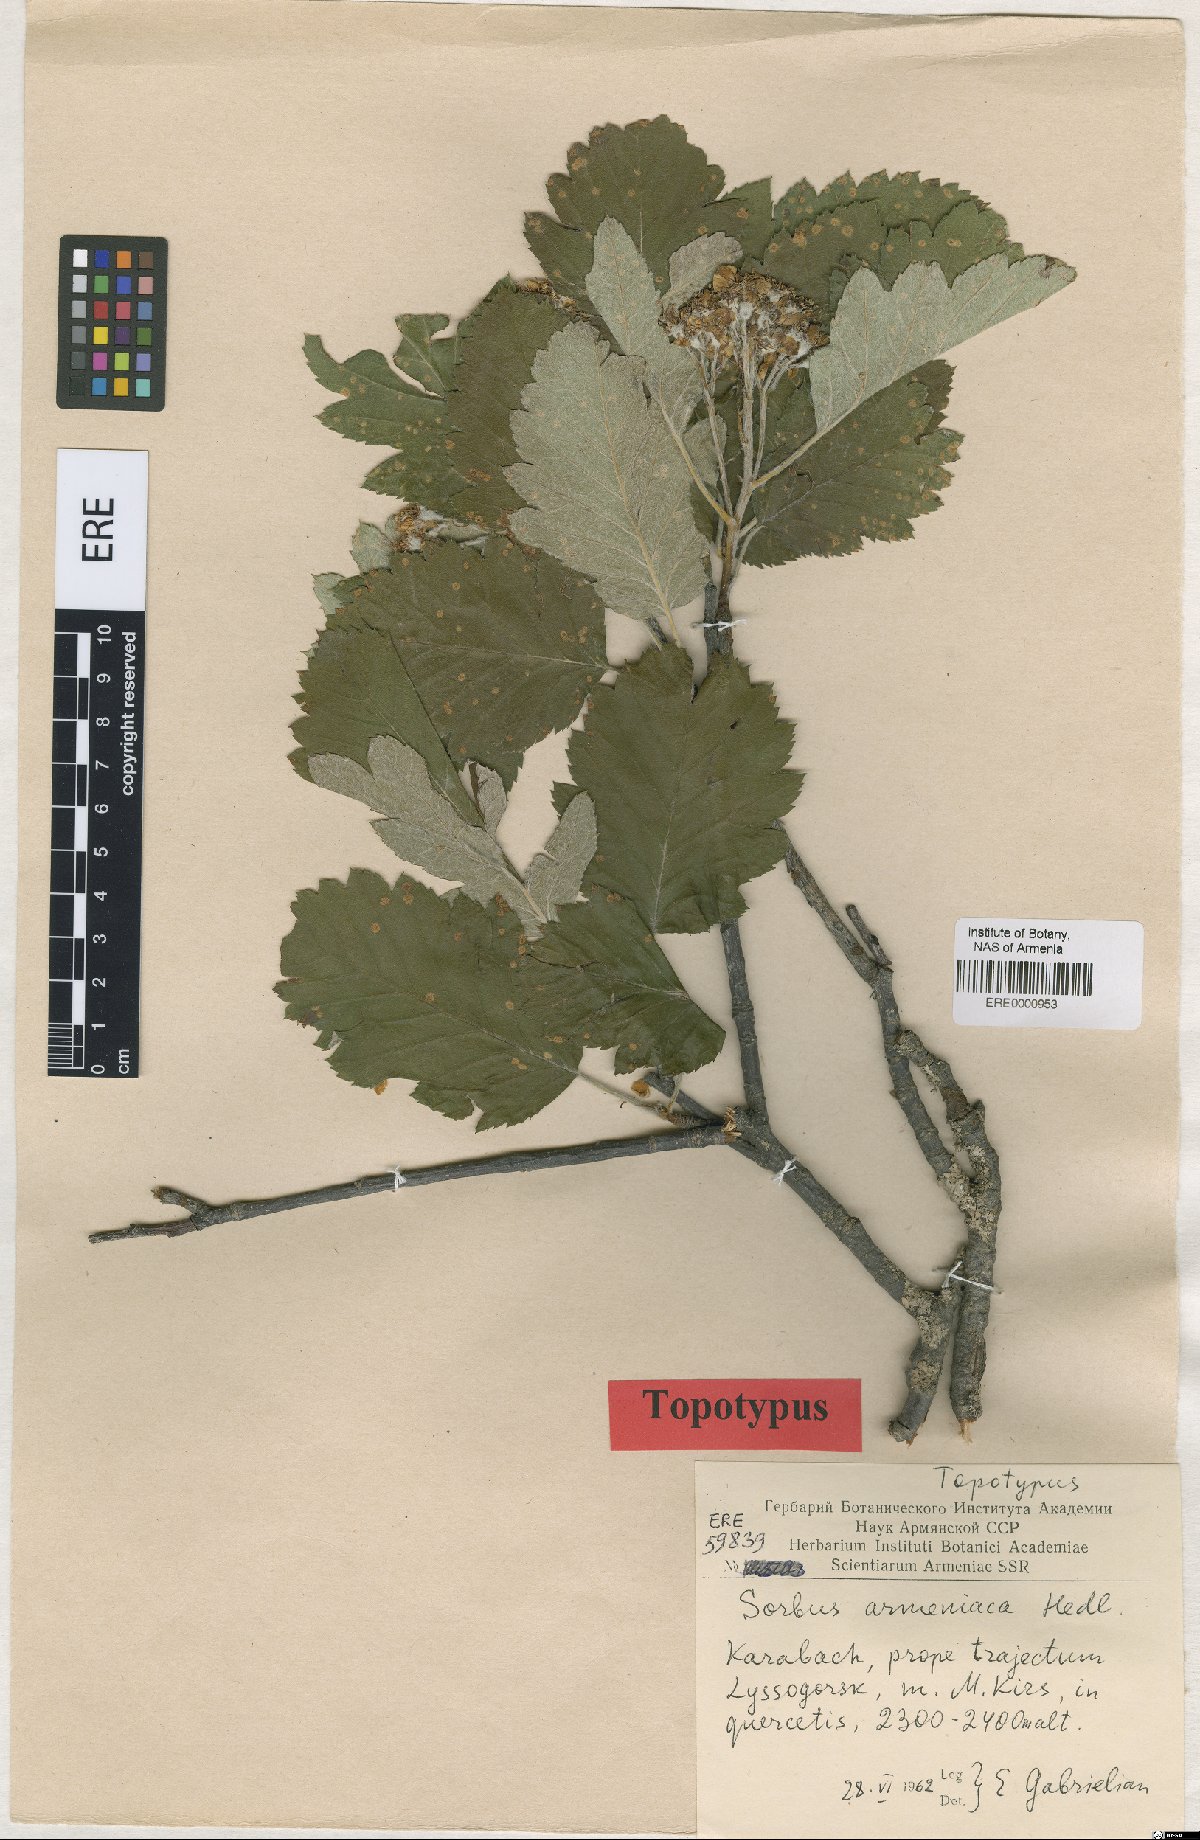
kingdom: Plantae
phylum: Tracheophyta
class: Magnoliopsida
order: Rosales
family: Rosaceae
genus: Hedlundia
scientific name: Hedlundia armeniaca
